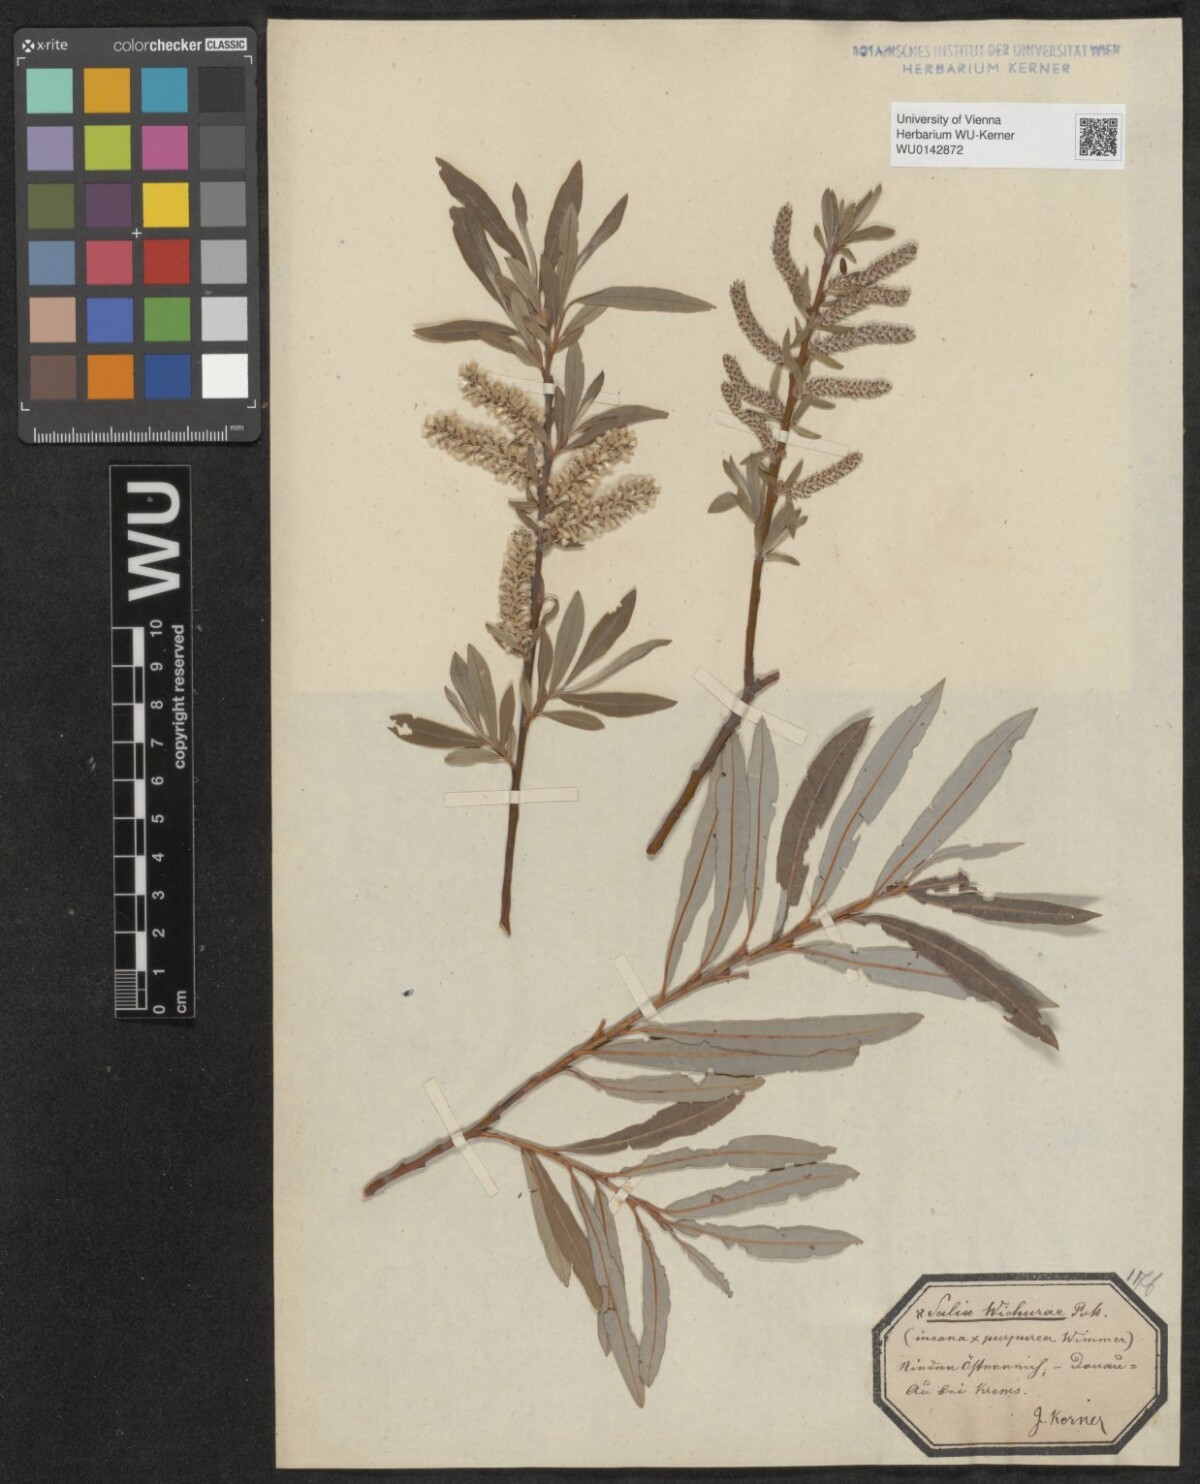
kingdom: Plantae
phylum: Tracheophyta
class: Magnoliopsida
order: Malpighiales
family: Salicaceae
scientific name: Salicaceae
